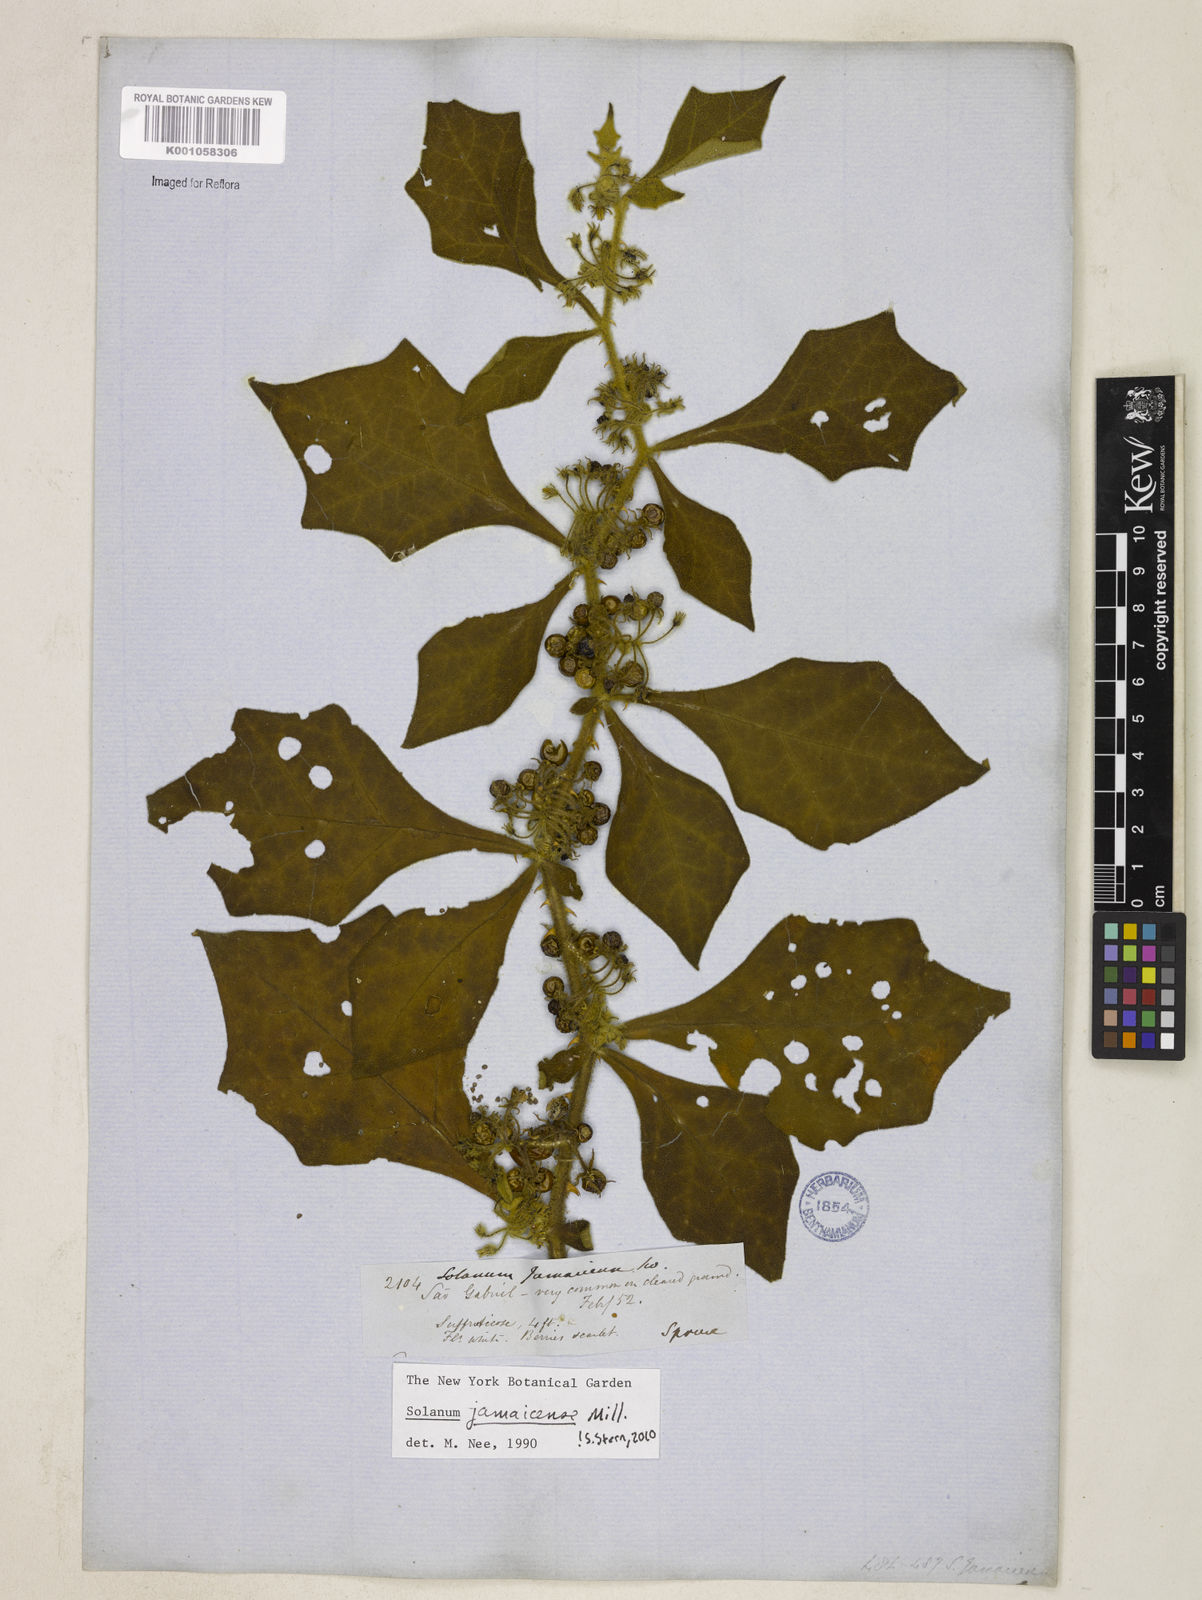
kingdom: Plantae
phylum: Tracheophyta
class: Magnoliopsida
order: Solanales
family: Solanaceae
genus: Solanum
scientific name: Solanum jamaicense
